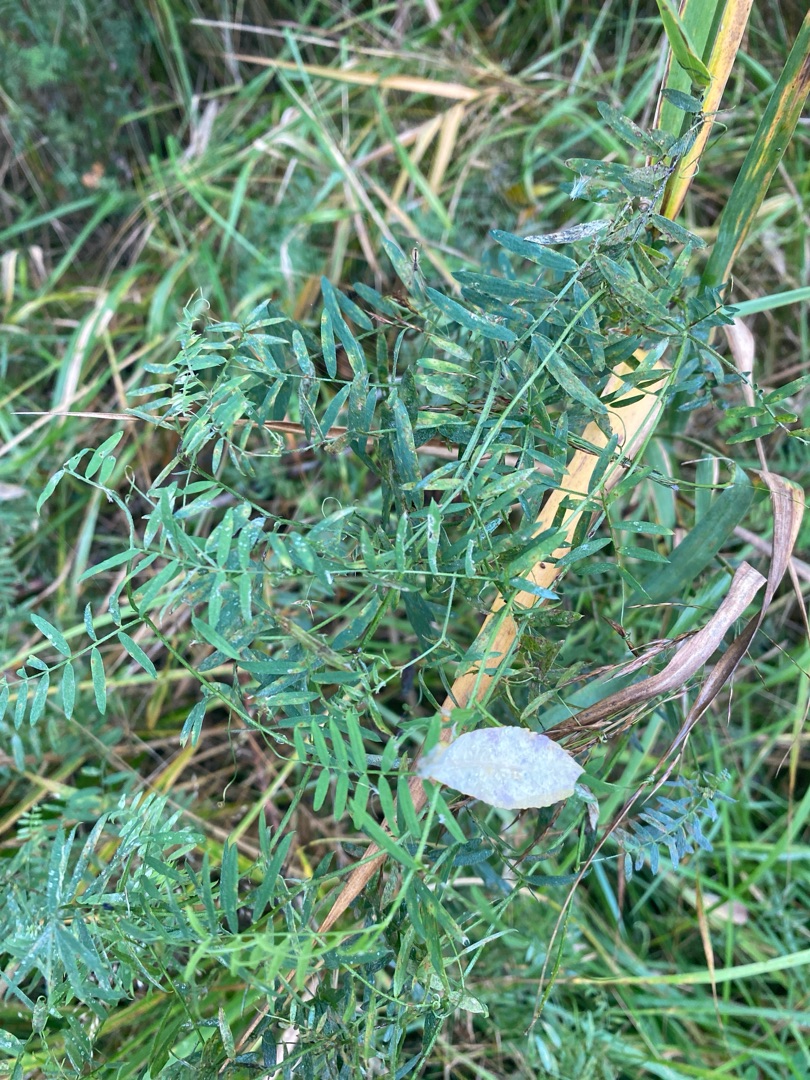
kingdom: Plantae
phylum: Tracheophyta
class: Magnoliopsida
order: Fabales
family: Fabaceae
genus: Vicia
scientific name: Vicia cracca
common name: Muse-vikke
